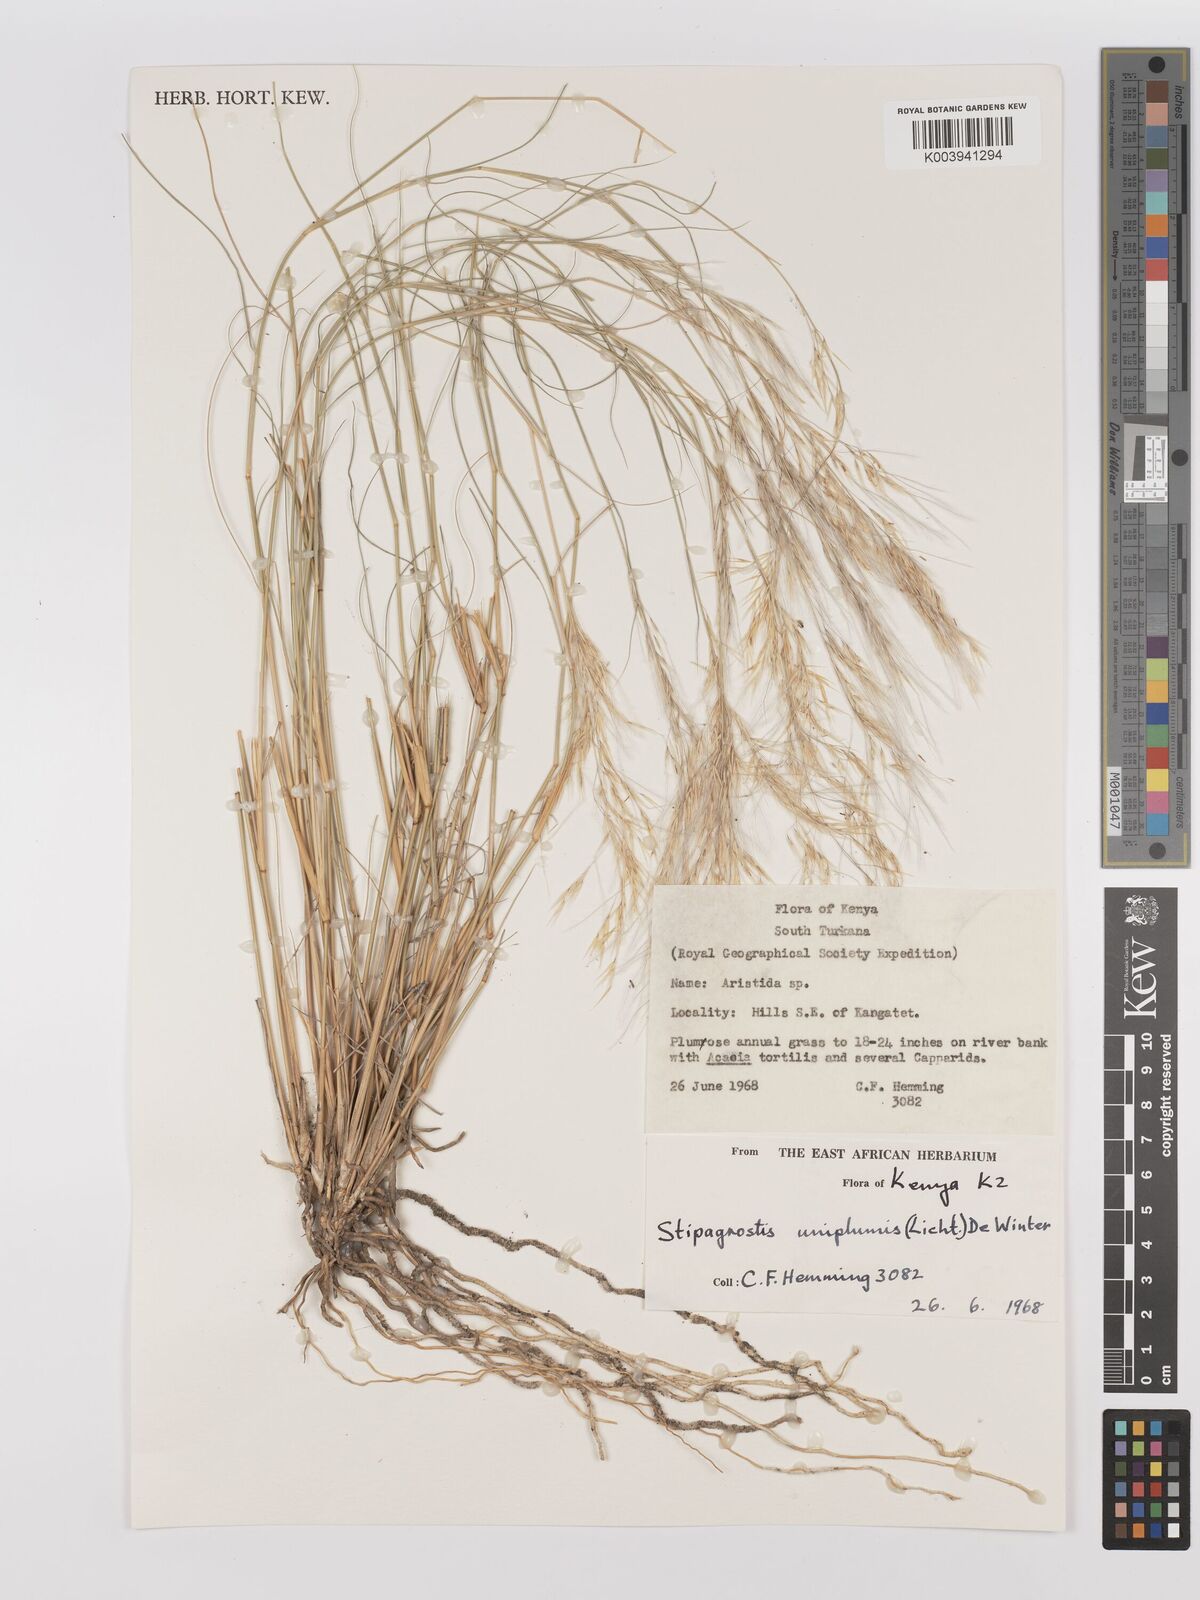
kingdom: Plantae
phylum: Tracheophyta
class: Liliopsida
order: Poales
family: Poaceae
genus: Stipagrostis
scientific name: Stipagrostis uniplumis
